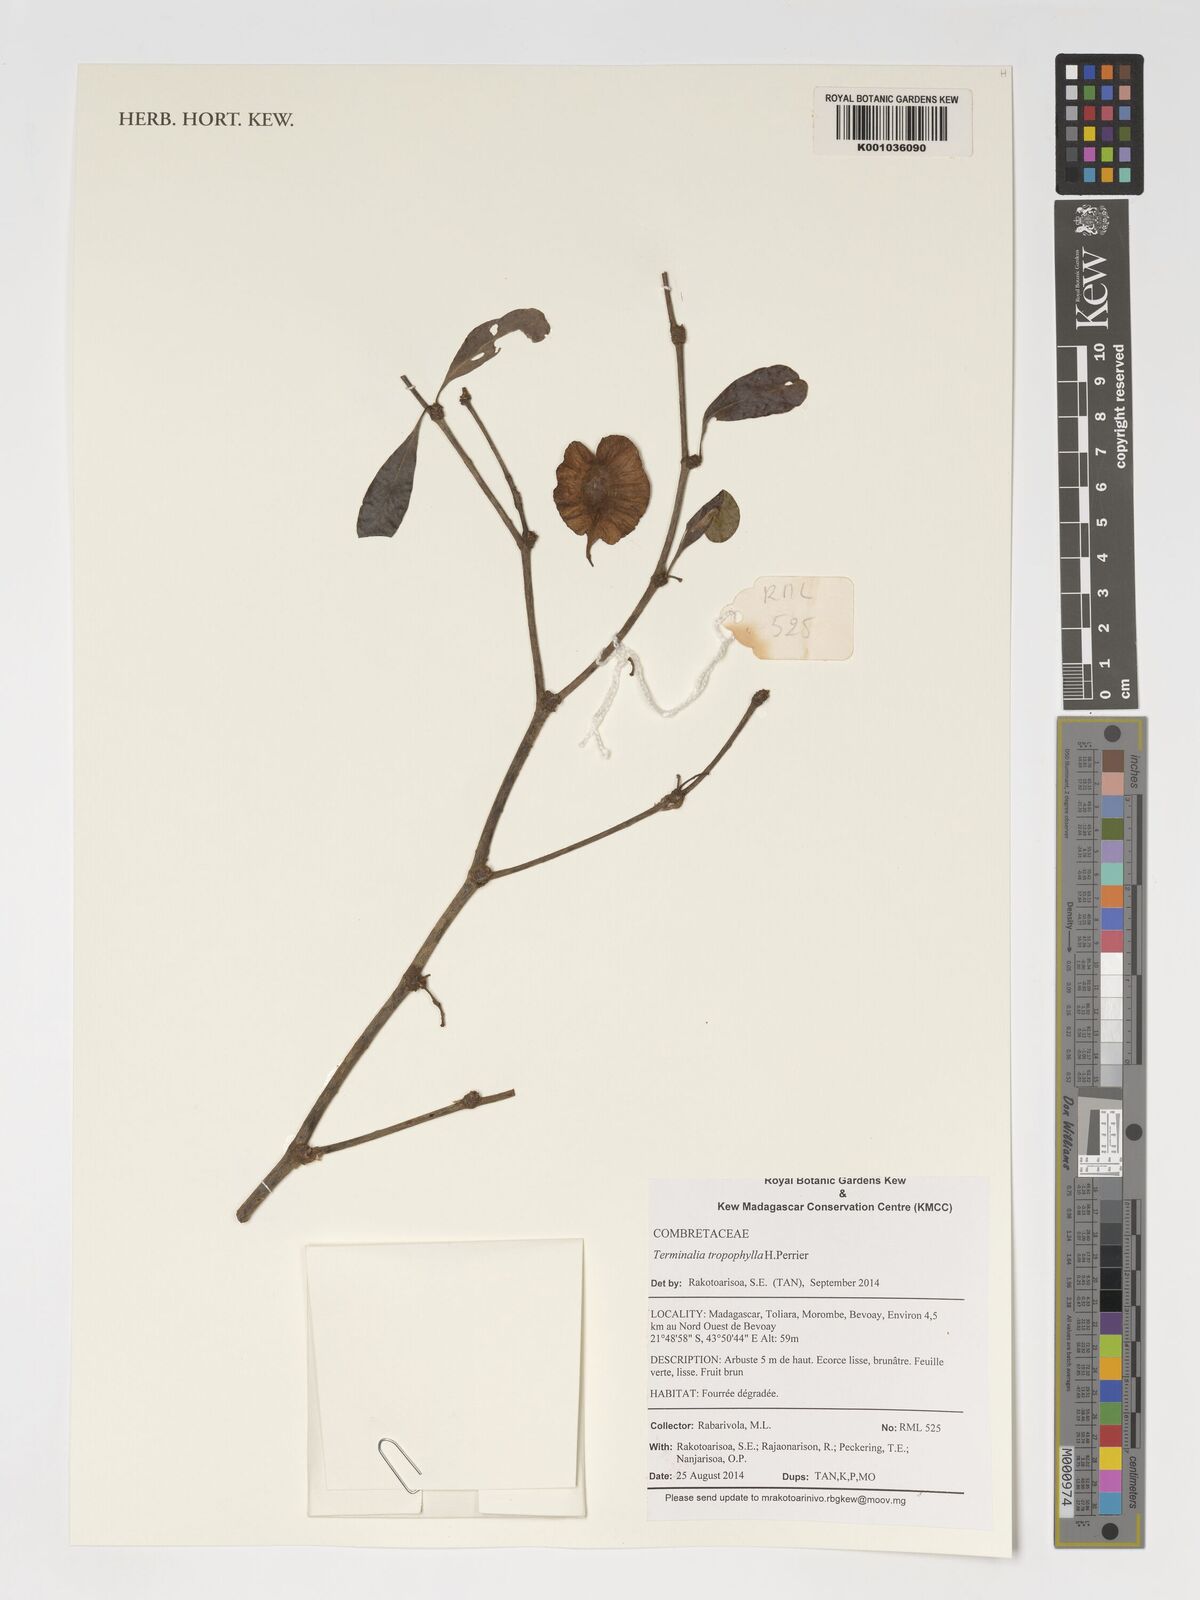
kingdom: Plantae
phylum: Tracheophyta
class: Magnoliopsida
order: Myrtales
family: Combretaceae
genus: Terminalia
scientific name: Terminalia tropophylla
